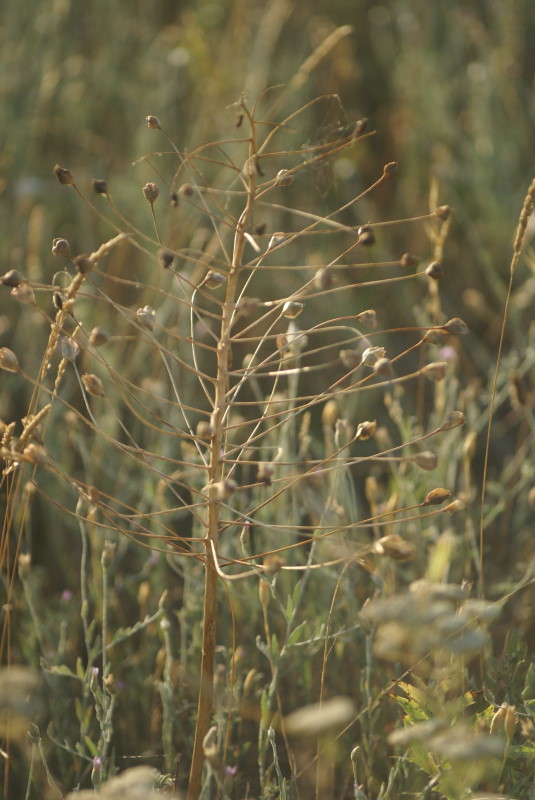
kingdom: Plantae
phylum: Tracheophyta
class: Liliopsida
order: Asparagales
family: Asparagaceae
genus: Ornithogalum
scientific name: Ornithogalum
